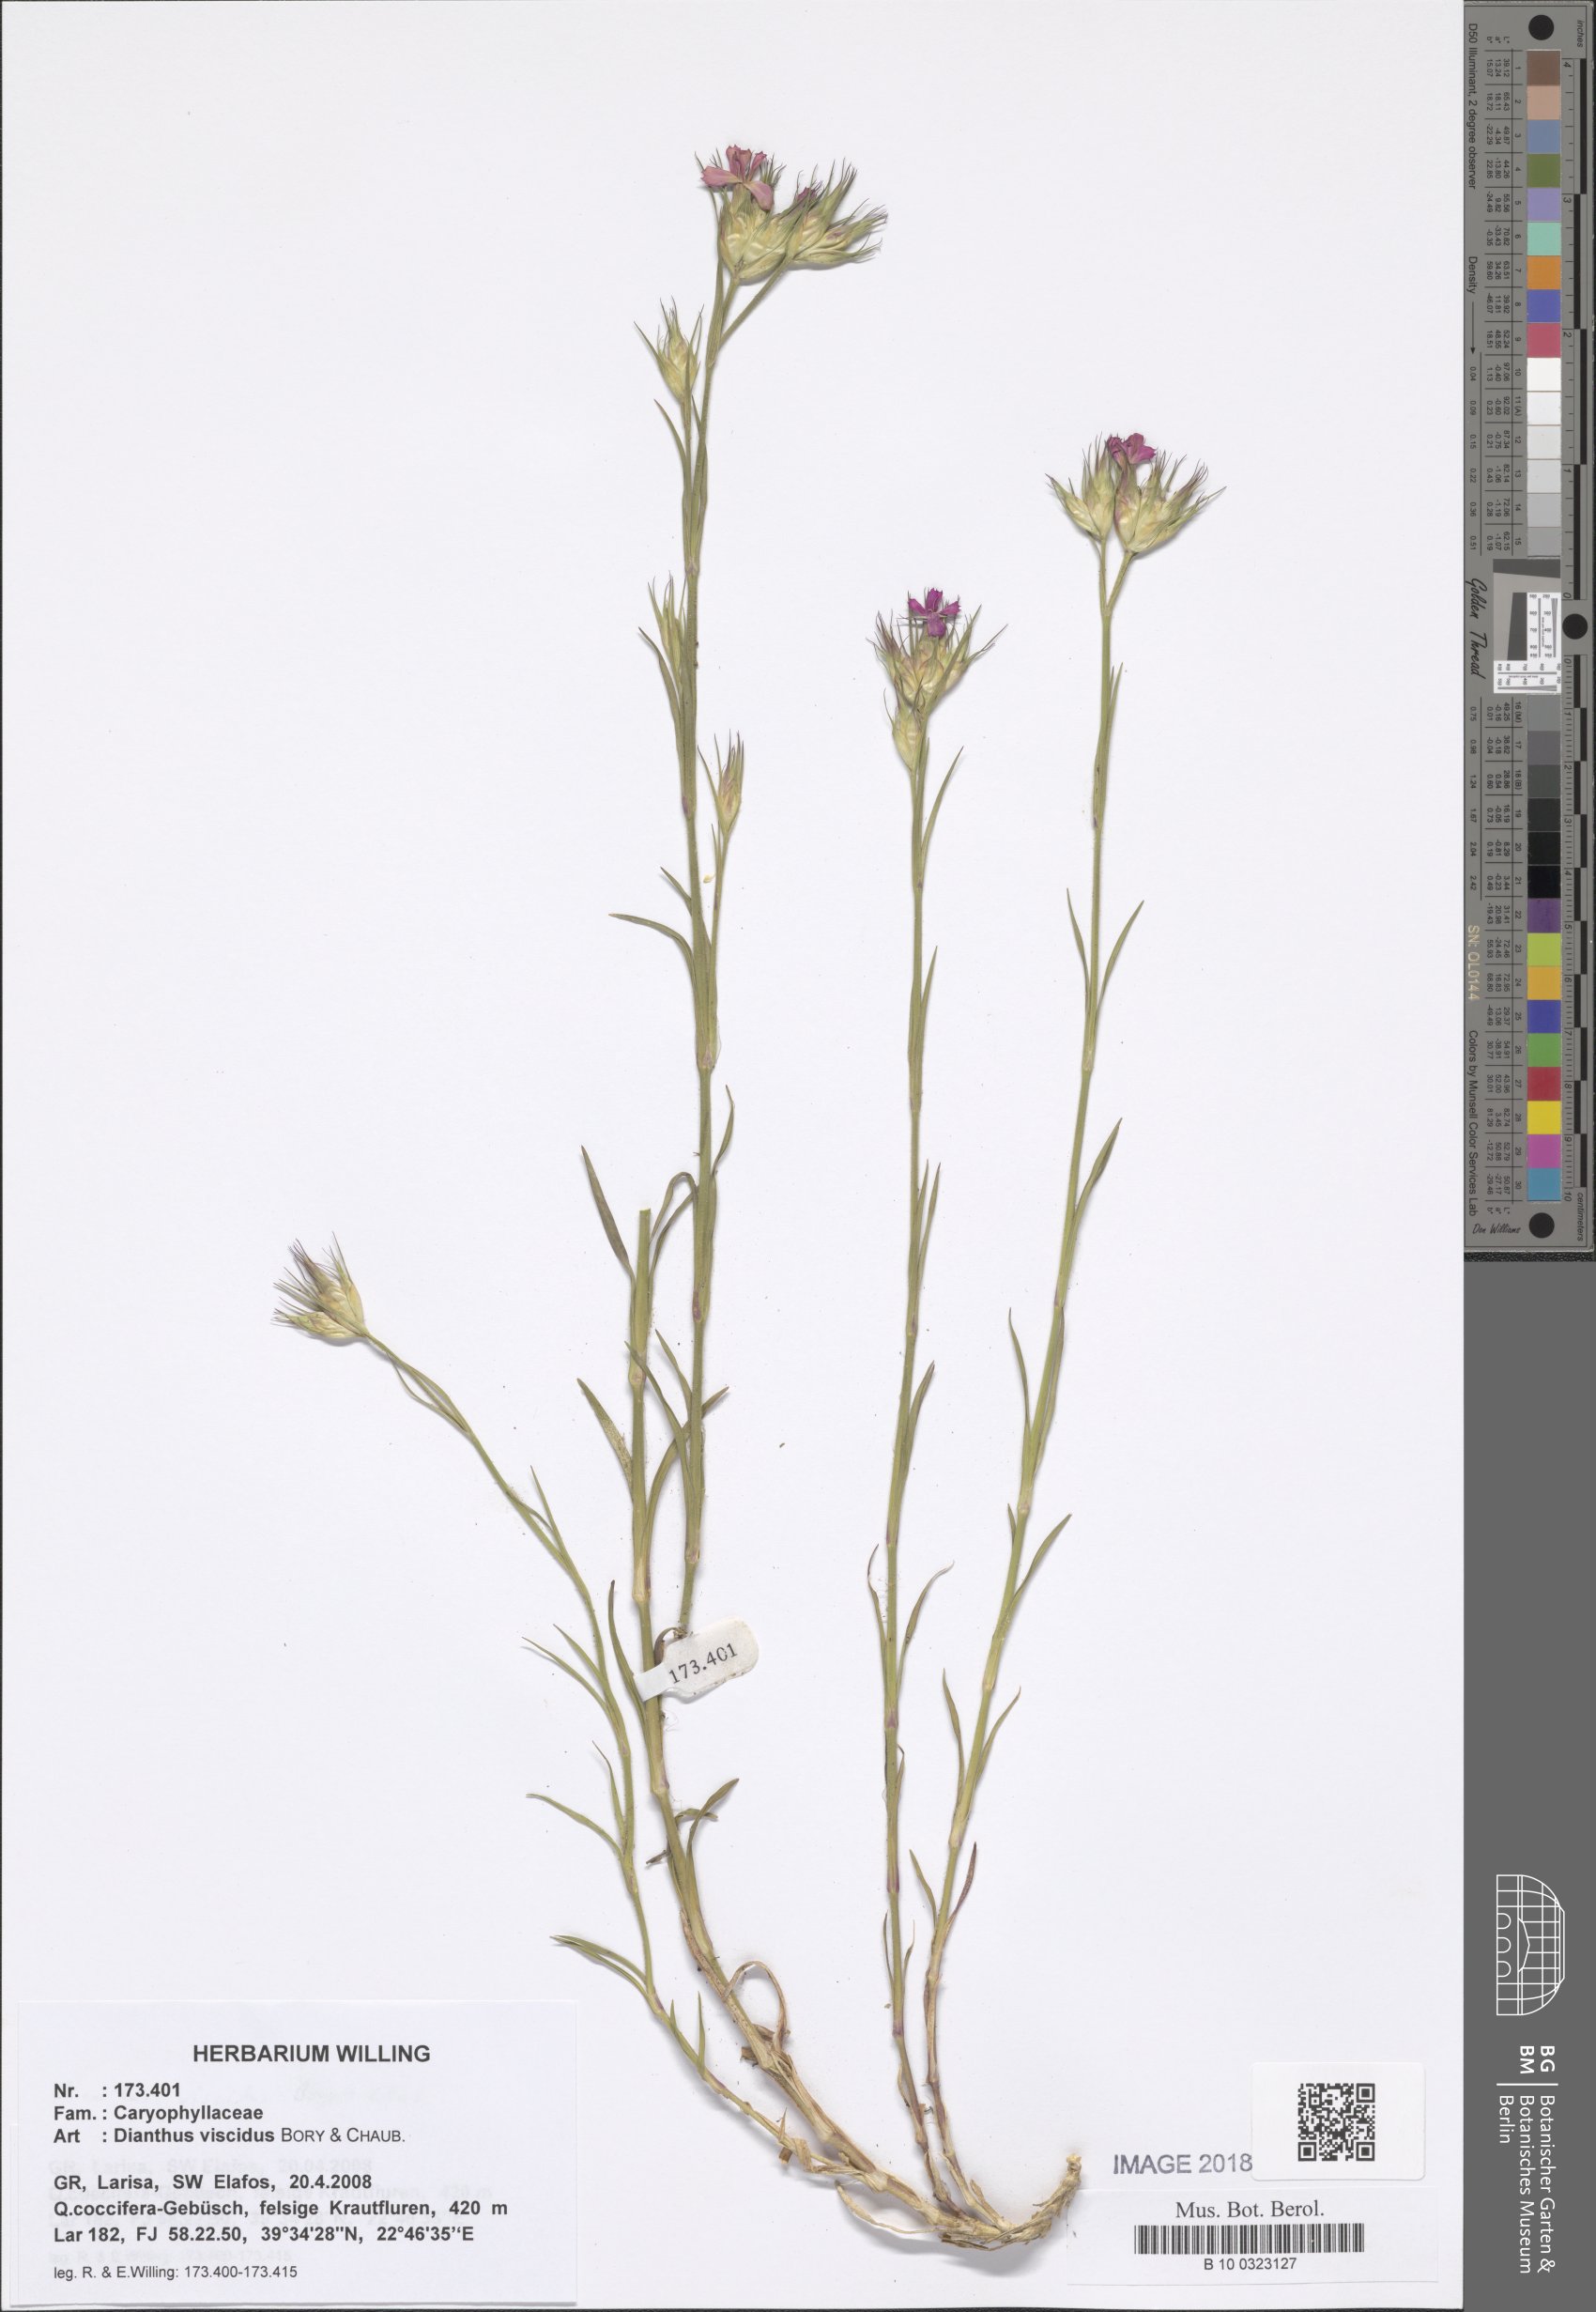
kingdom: Plantae
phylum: Tracheophyta
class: Magnoliopsida
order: Caryophyllales
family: Caryophyllaceae
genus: Dianthus
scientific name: Dianthus viscidus
